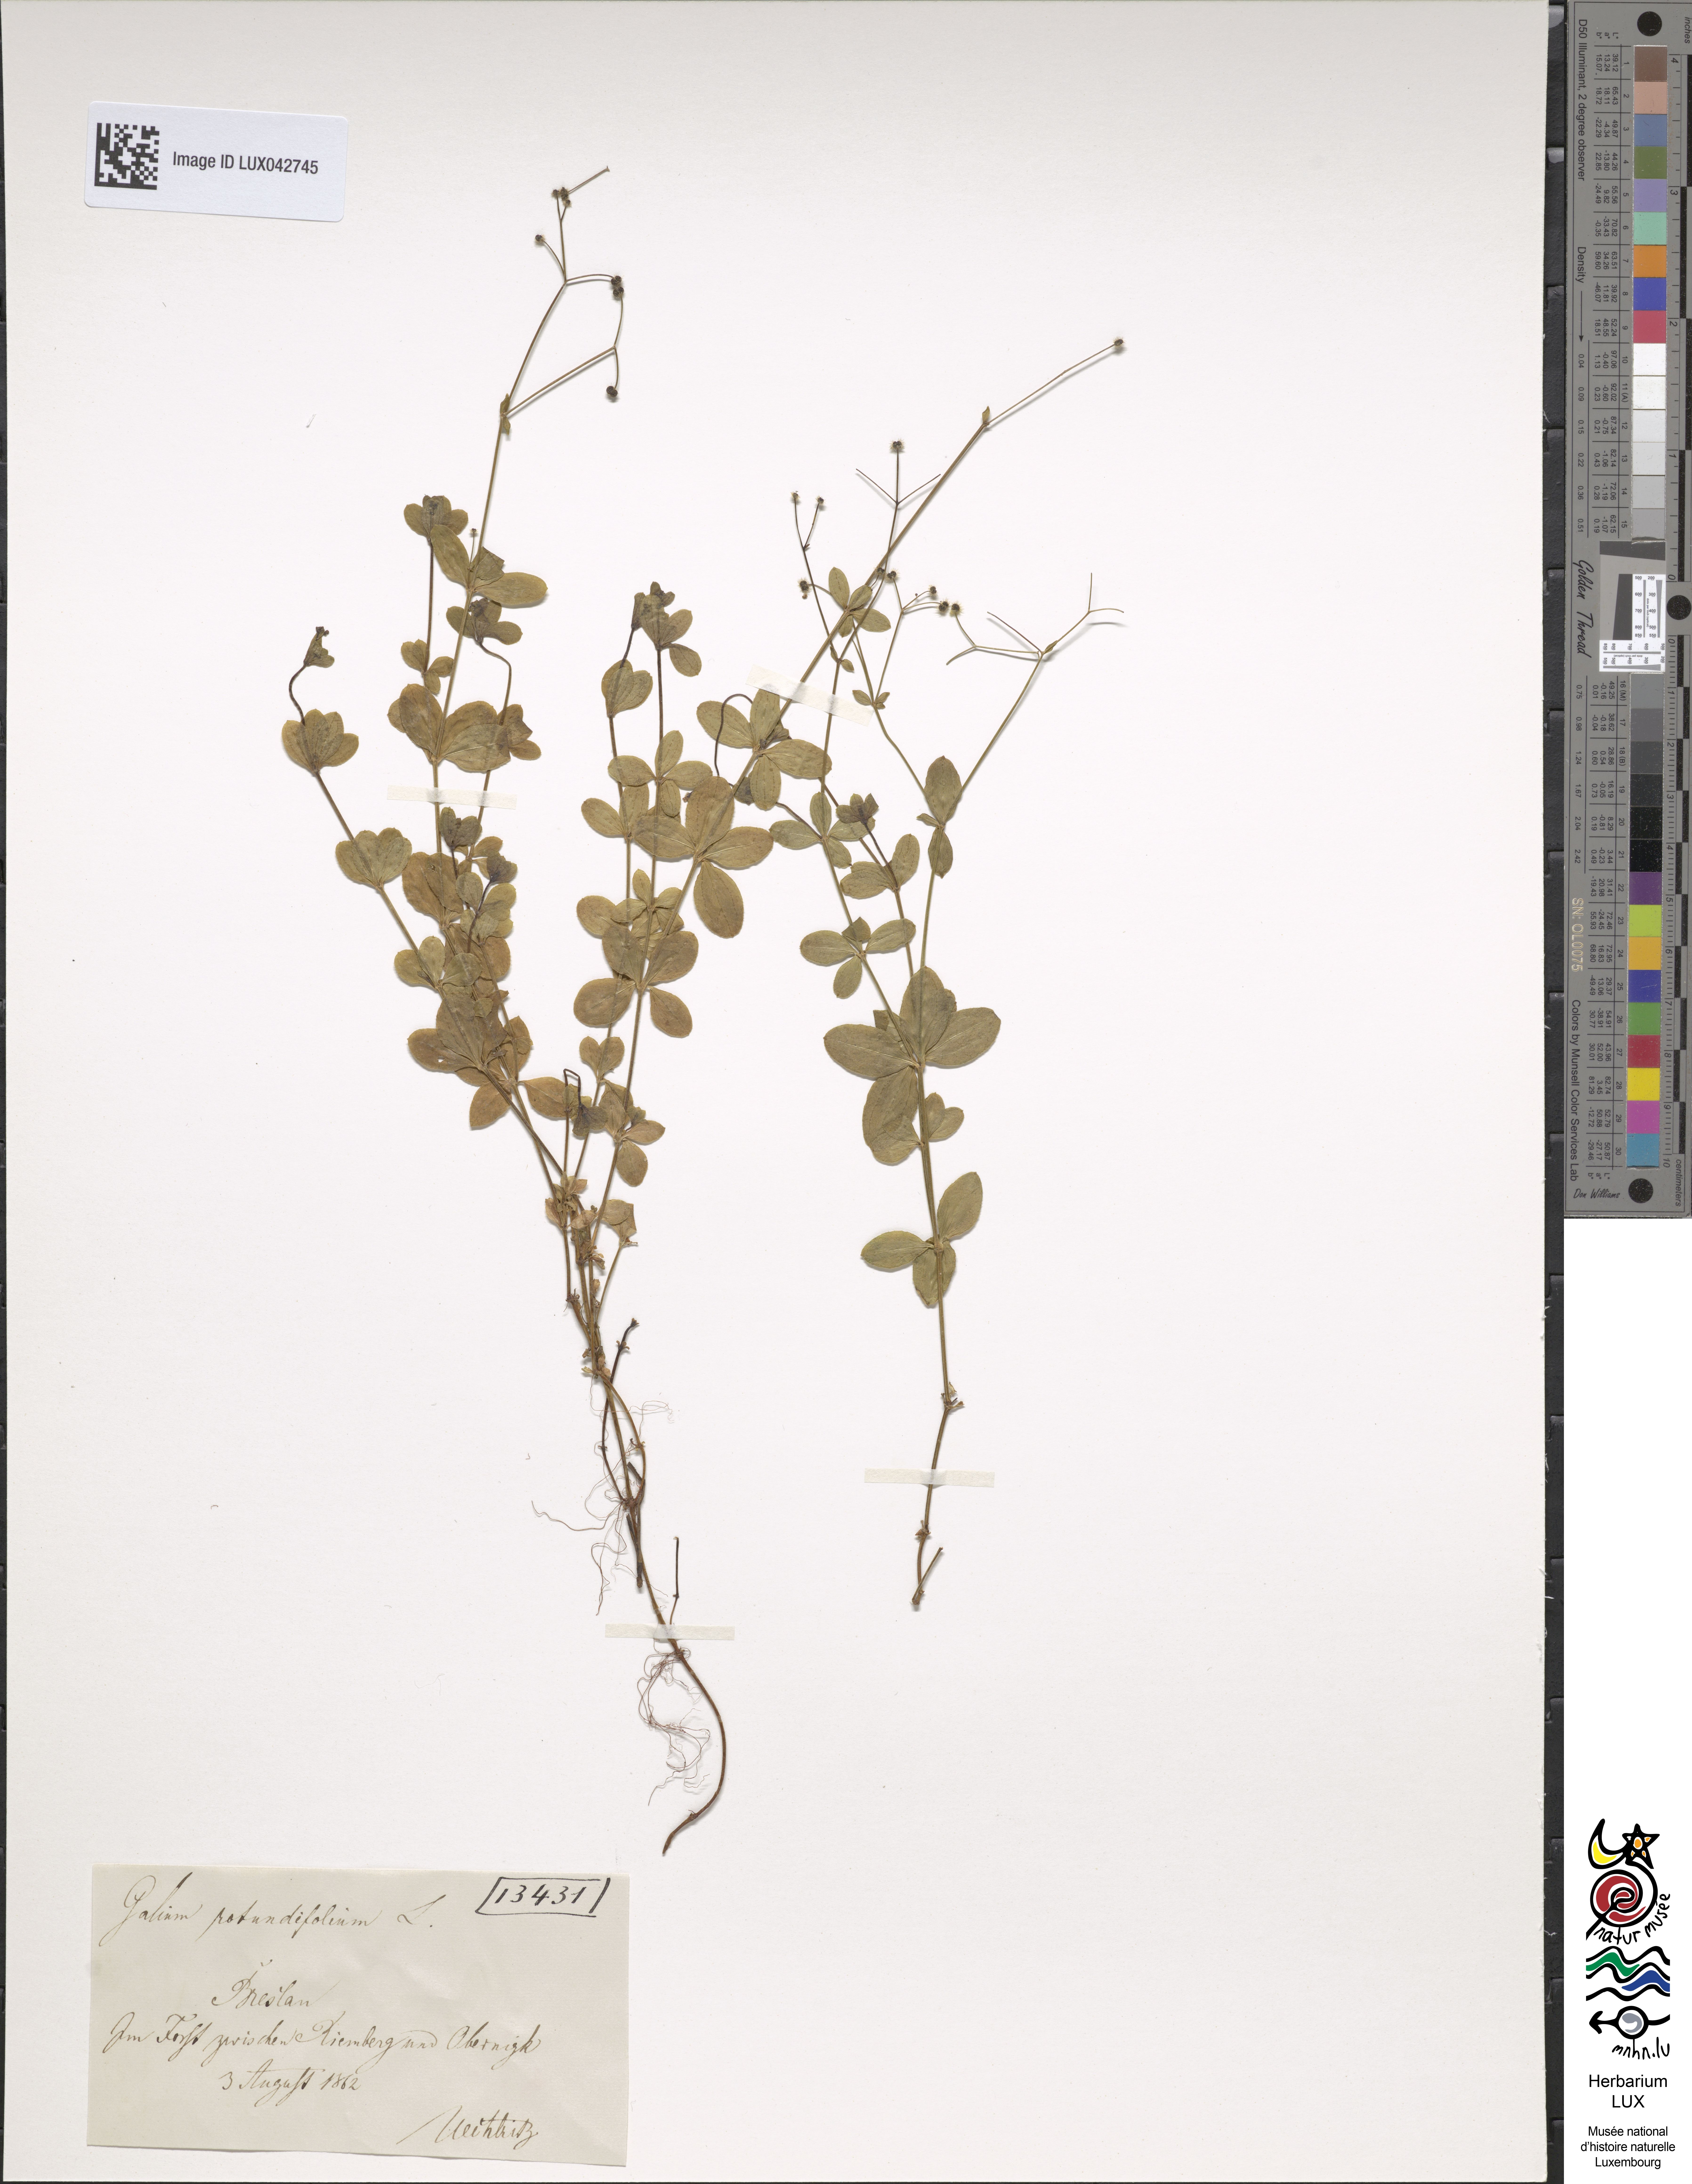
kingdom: Plantae
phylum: Tracheophyta
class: Magnoliopsida
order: Gentianales
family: Rubiaceae
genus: Galium
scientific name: Galium rotundifolium
